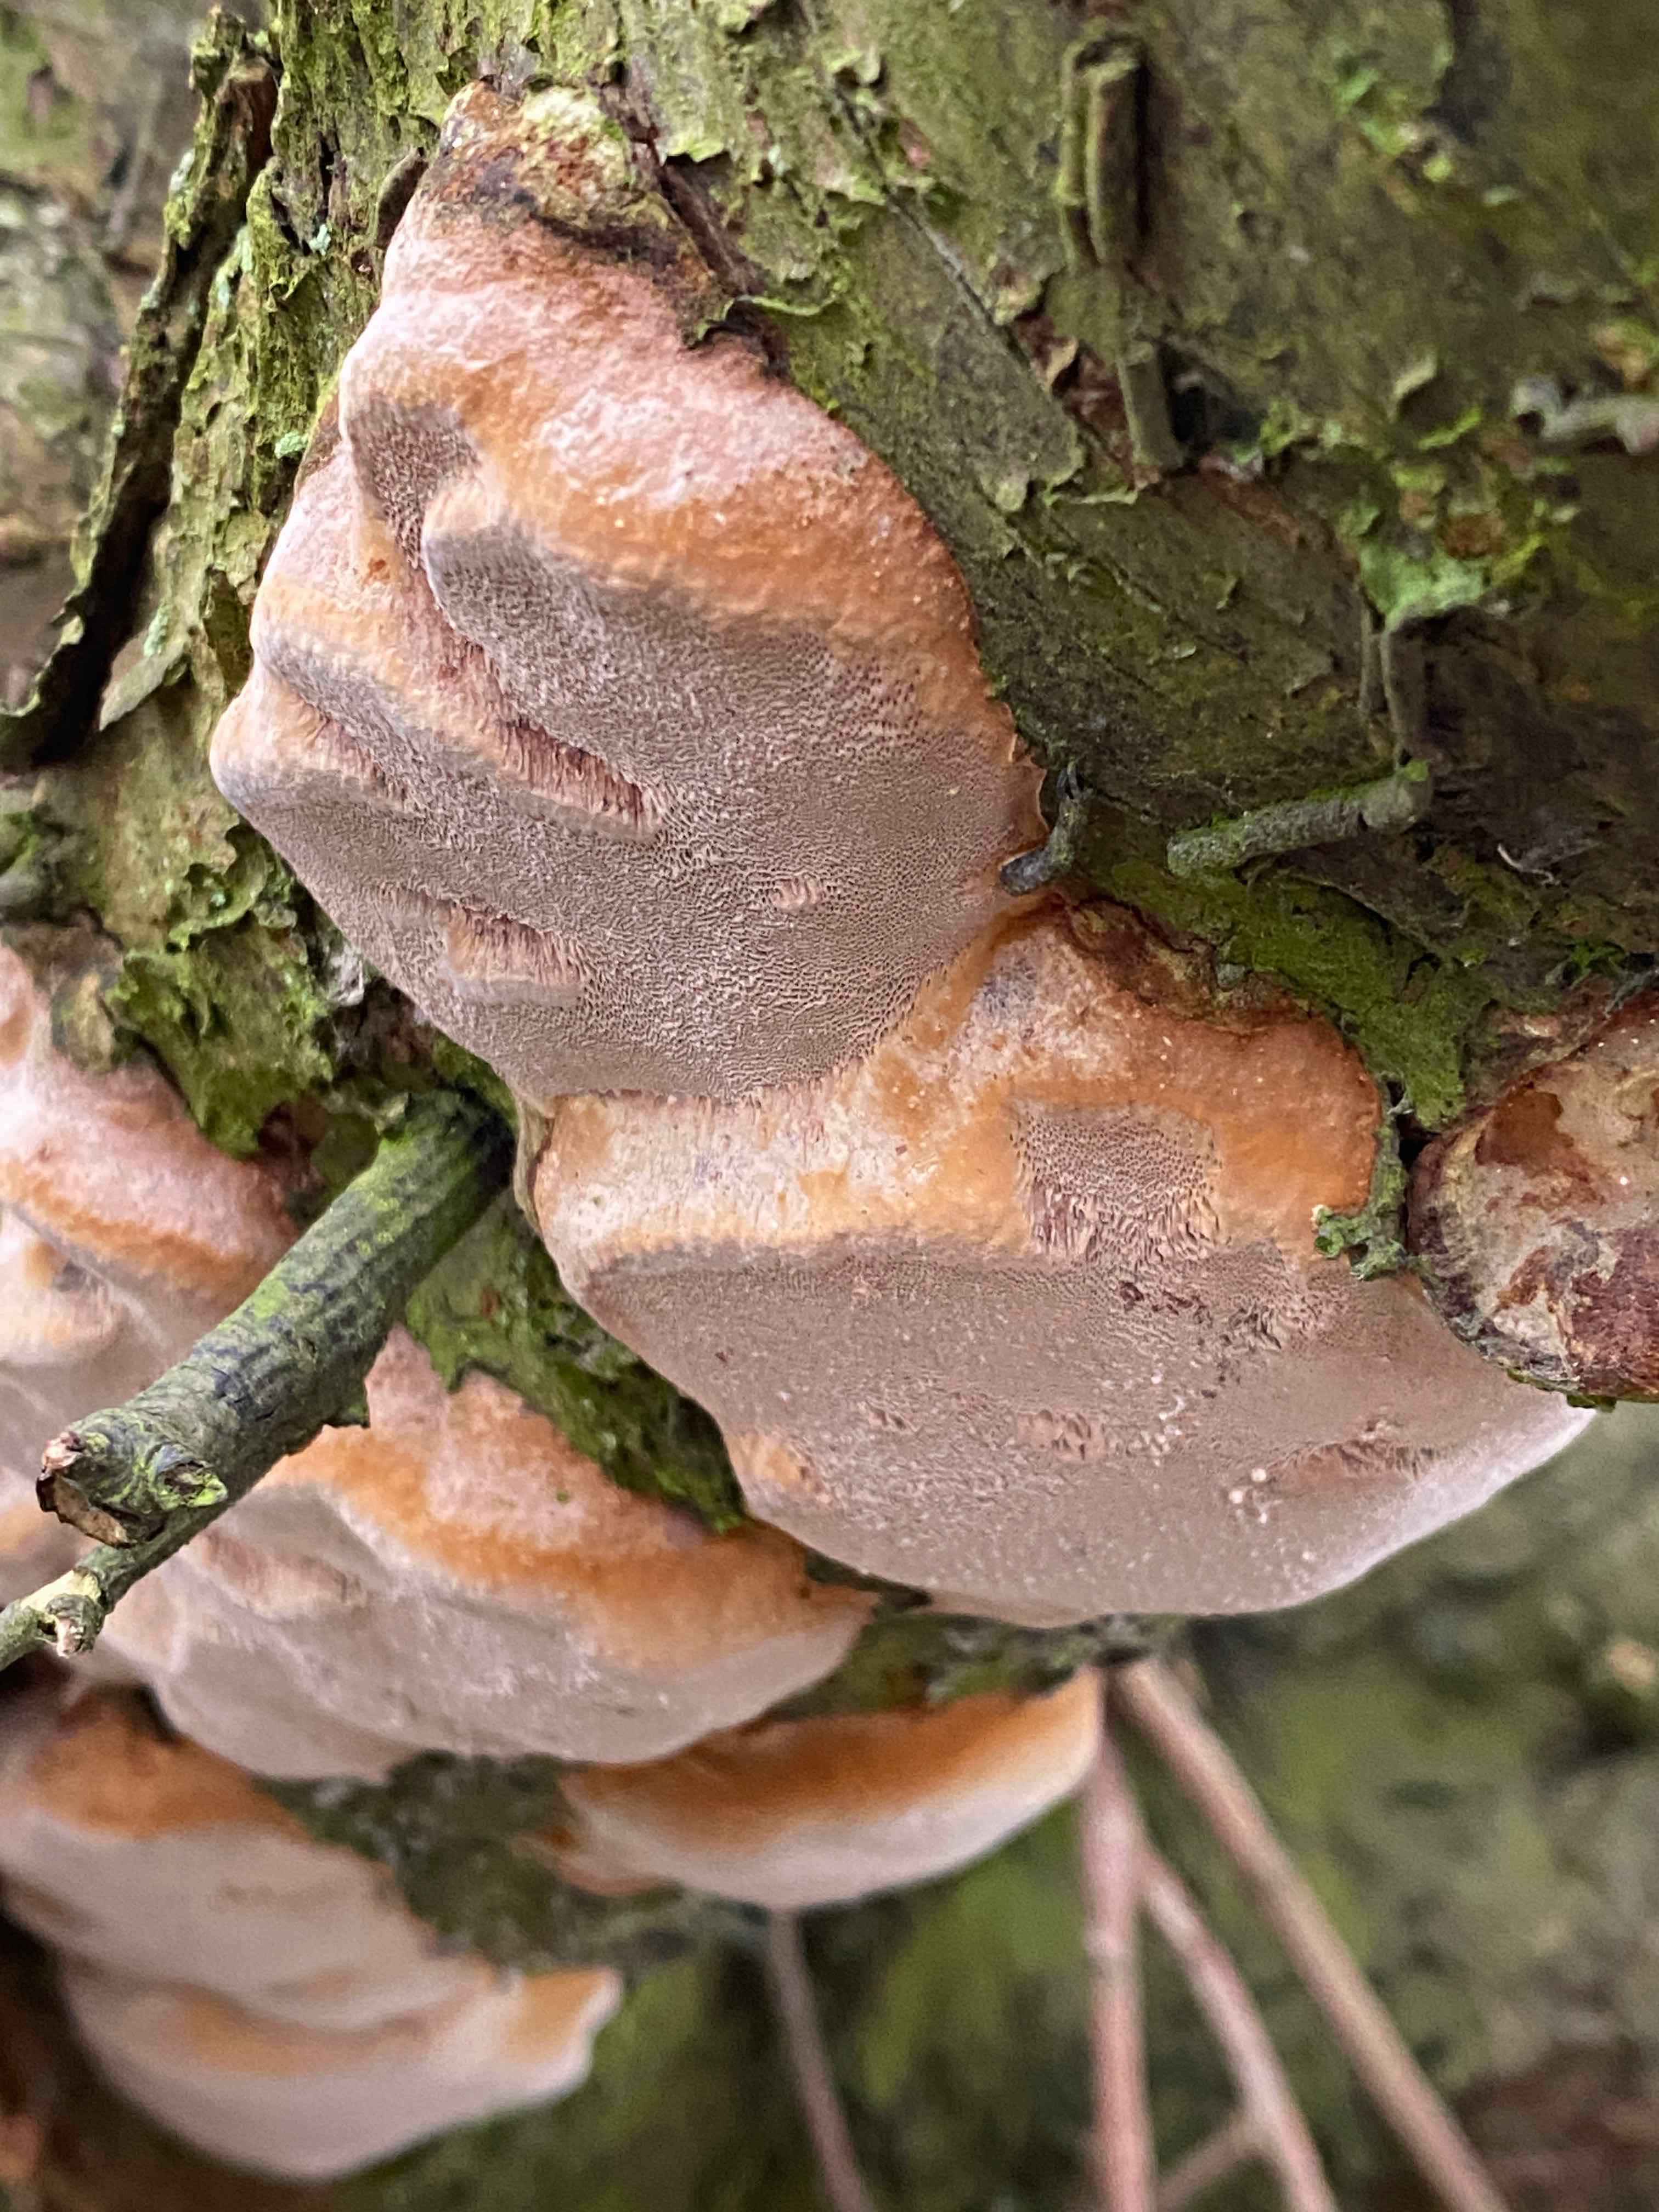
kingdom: Fungi
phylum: Basidiomycota
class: Agaricomycetes
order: Hymenochaetales
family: Hymenochaetaceae
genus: Phellinus
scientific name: Phellinus pomaceus
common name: blomme-ildporesvamp
